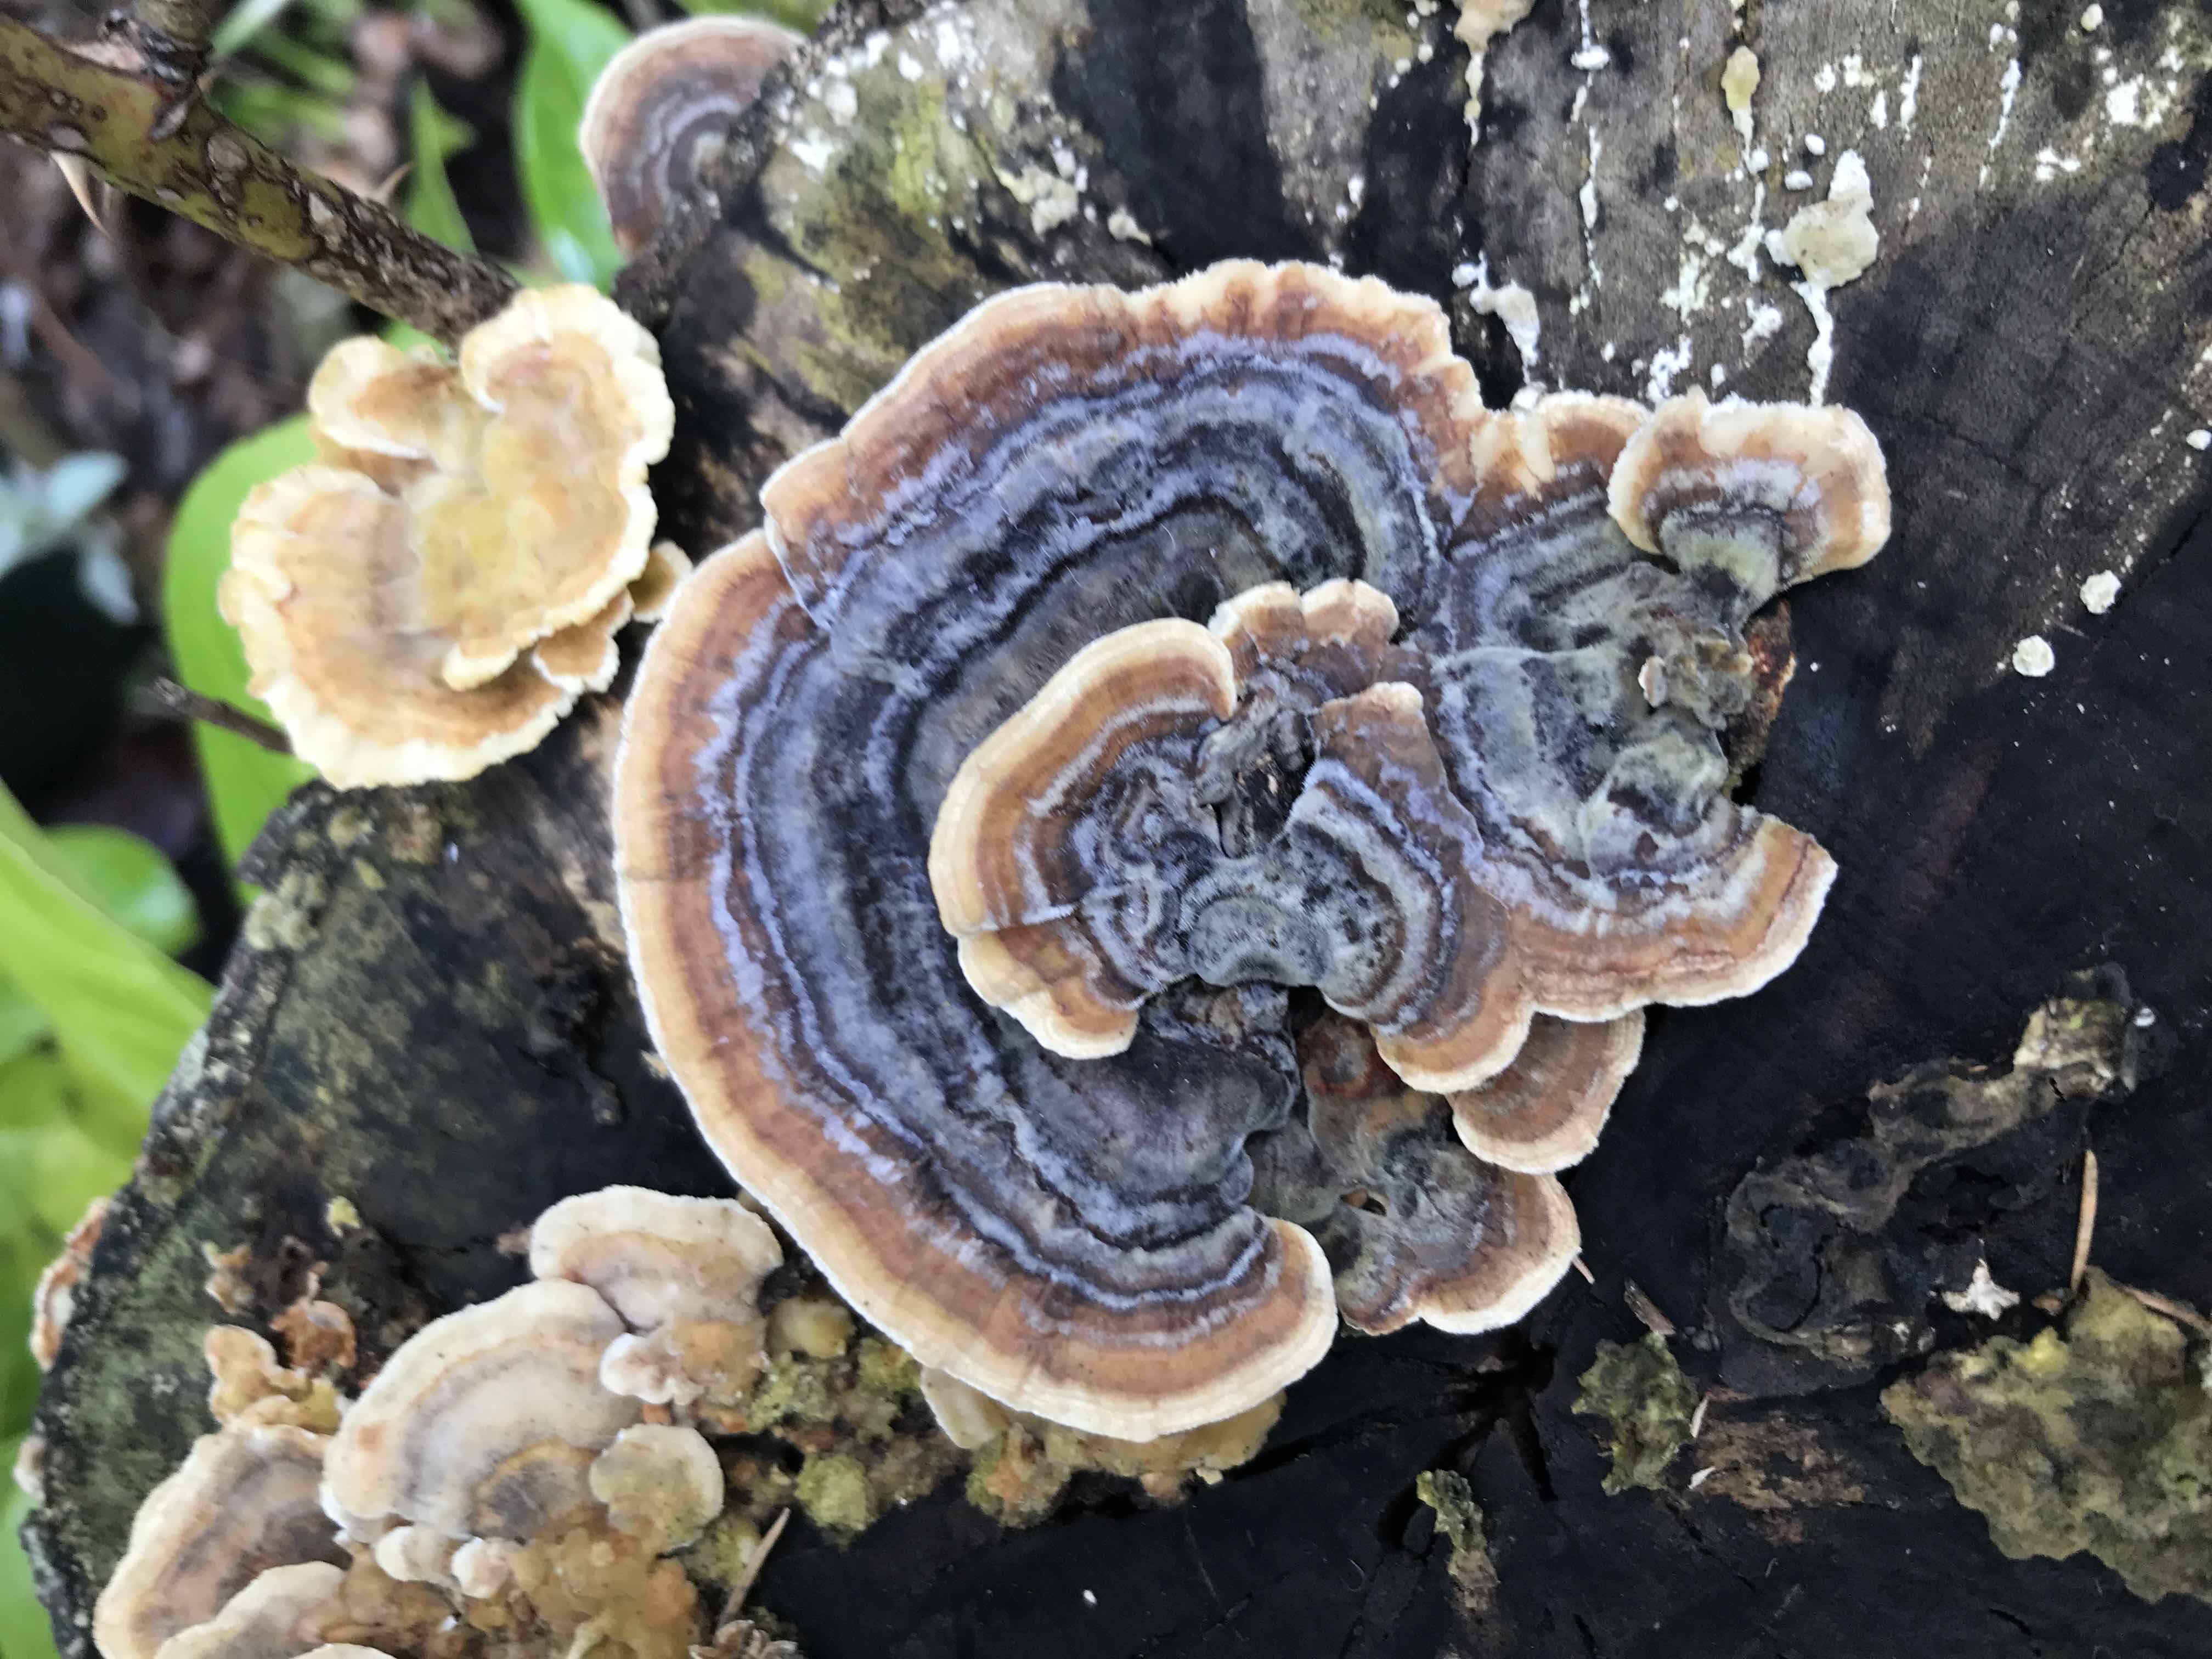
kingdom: Fungi
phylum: Basidiomycota
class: Agaricomycetes
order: Polyporales
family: Polyporaceae
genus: Trametes
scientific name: Trametes versicolor
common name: broget læderporesvamp
